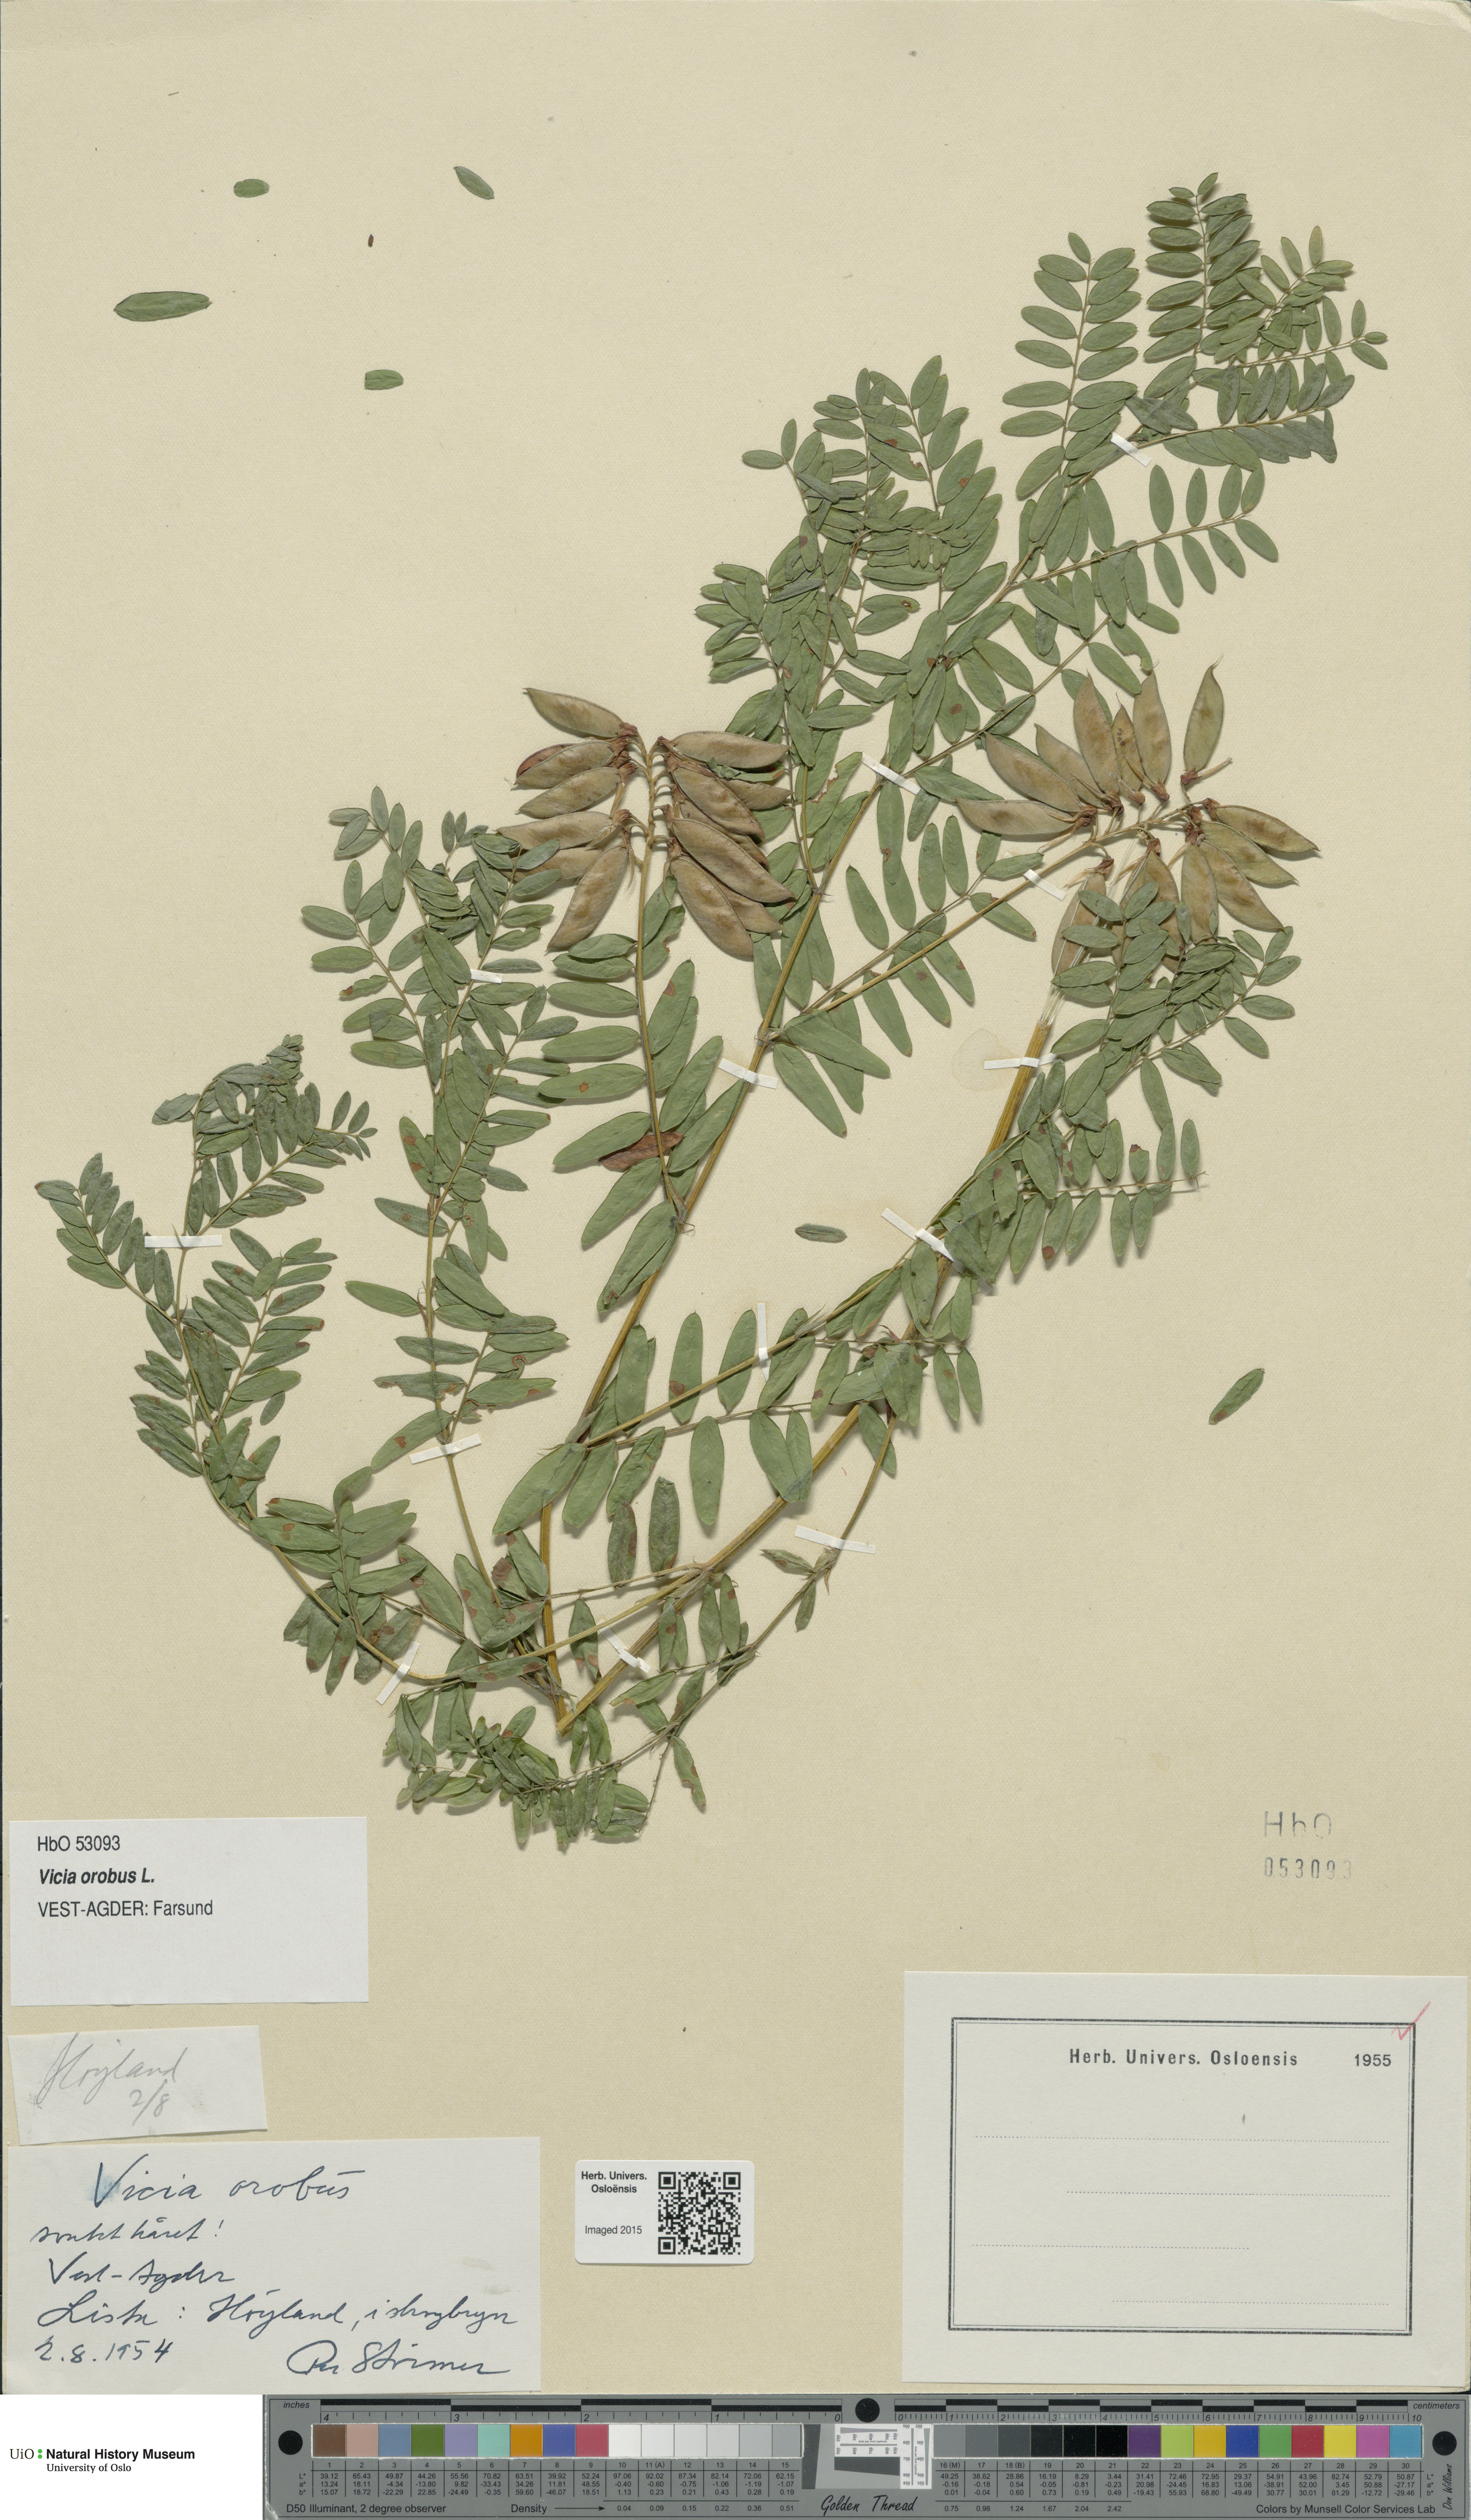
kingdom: Plantae
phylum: Tracheophyta
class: Magnoliopsida
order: Fabales
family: Fabaceae
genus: Vicia
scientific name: Vicia orobus
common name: Wood bitter-vetch
